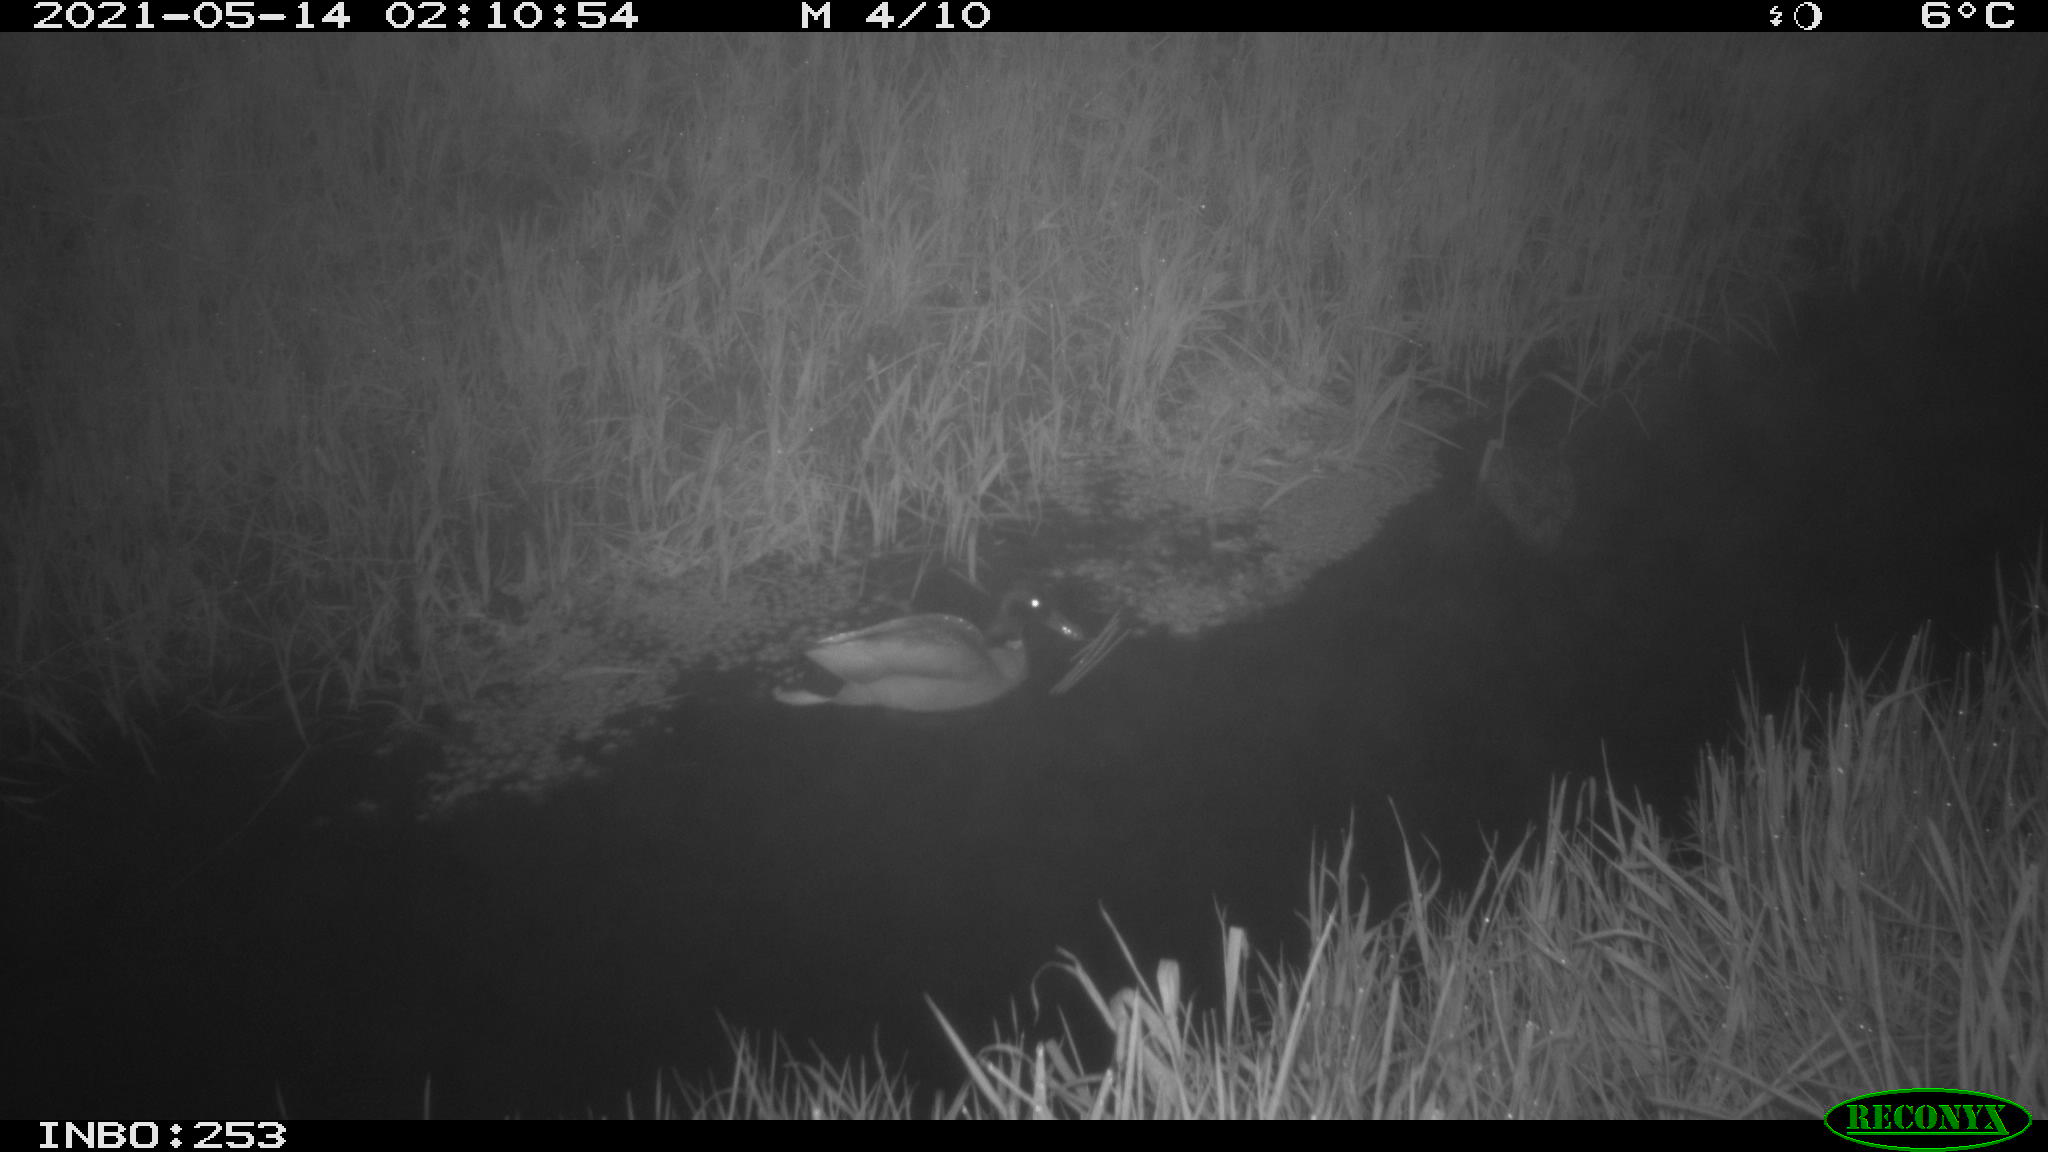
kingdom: Animalia
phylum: Chordata
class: Aves
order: Anseriformes
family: Anatidae
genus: Anas
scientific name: Anas platyrhynchos
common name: Mallard
